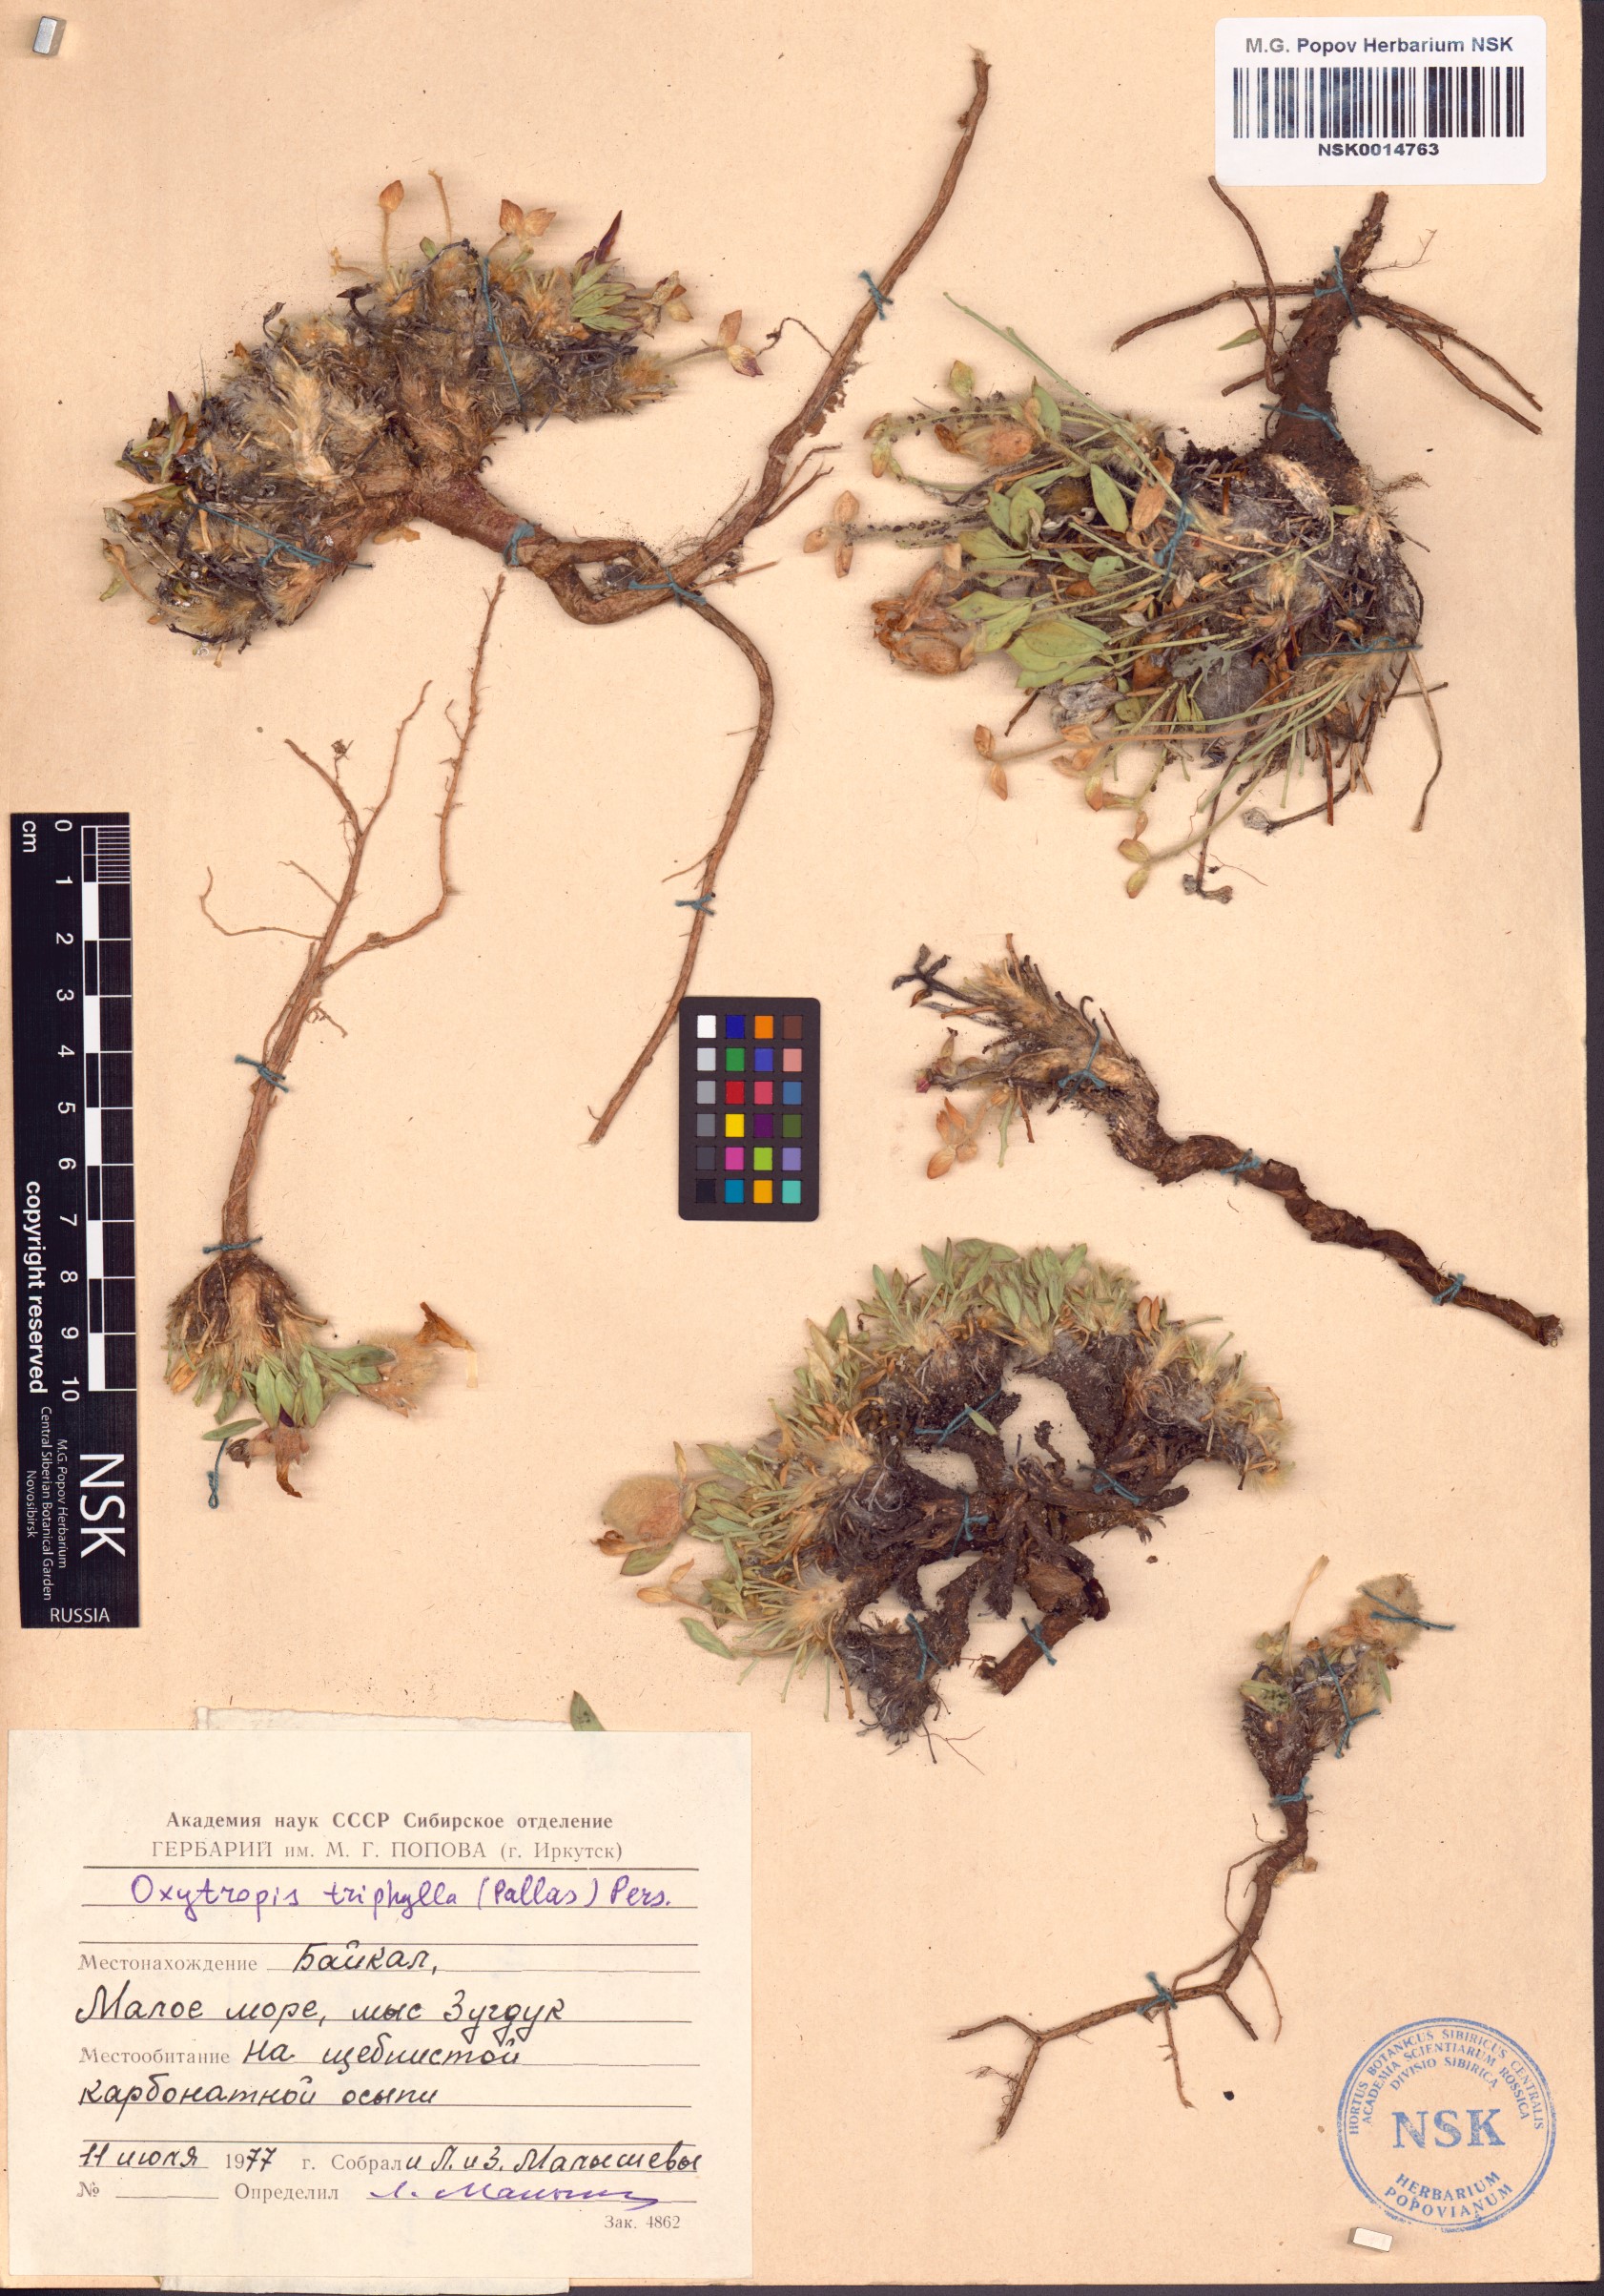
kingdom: Plantae
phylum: Tracheophyta
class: Magnoliopsida
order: Fabales
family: Fabaceae
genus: Oxytropis
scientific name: Oxytropis triphylla
